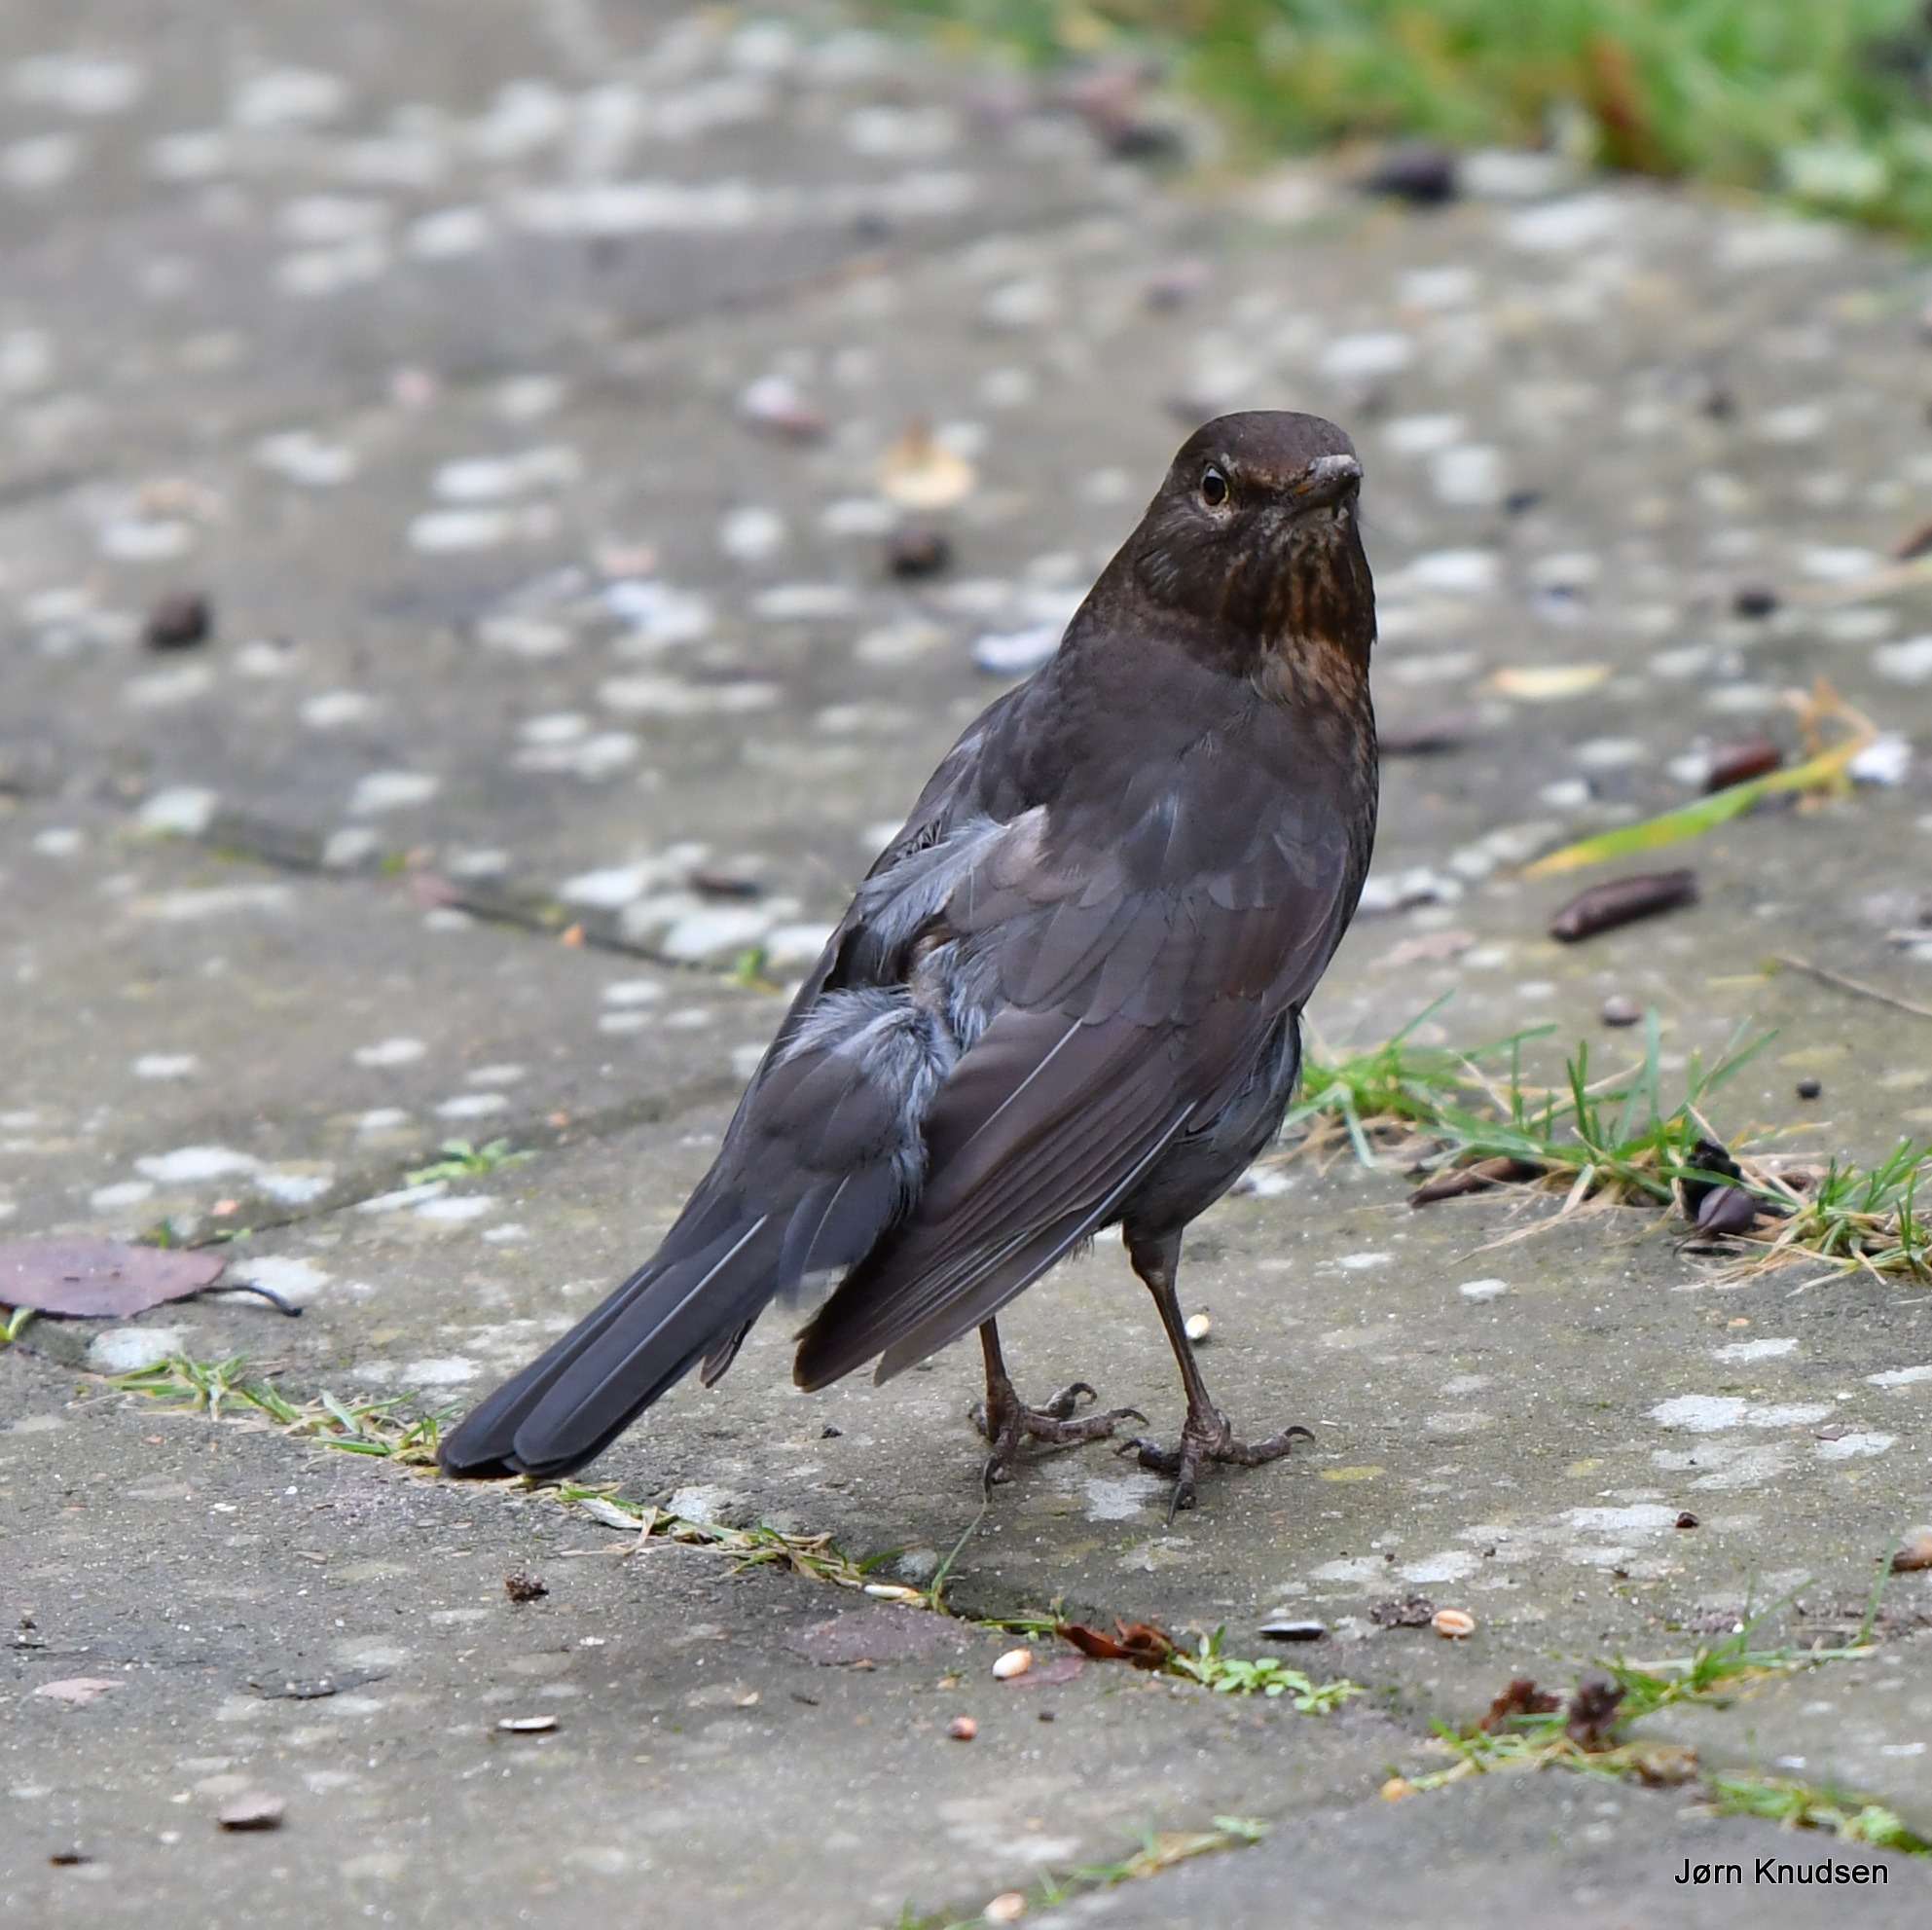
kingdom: Animalia
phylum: Chordata
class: Aves
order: Passeriformes
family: Turdidae
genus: Turdus
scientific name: Turdus merula
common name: Solsort
